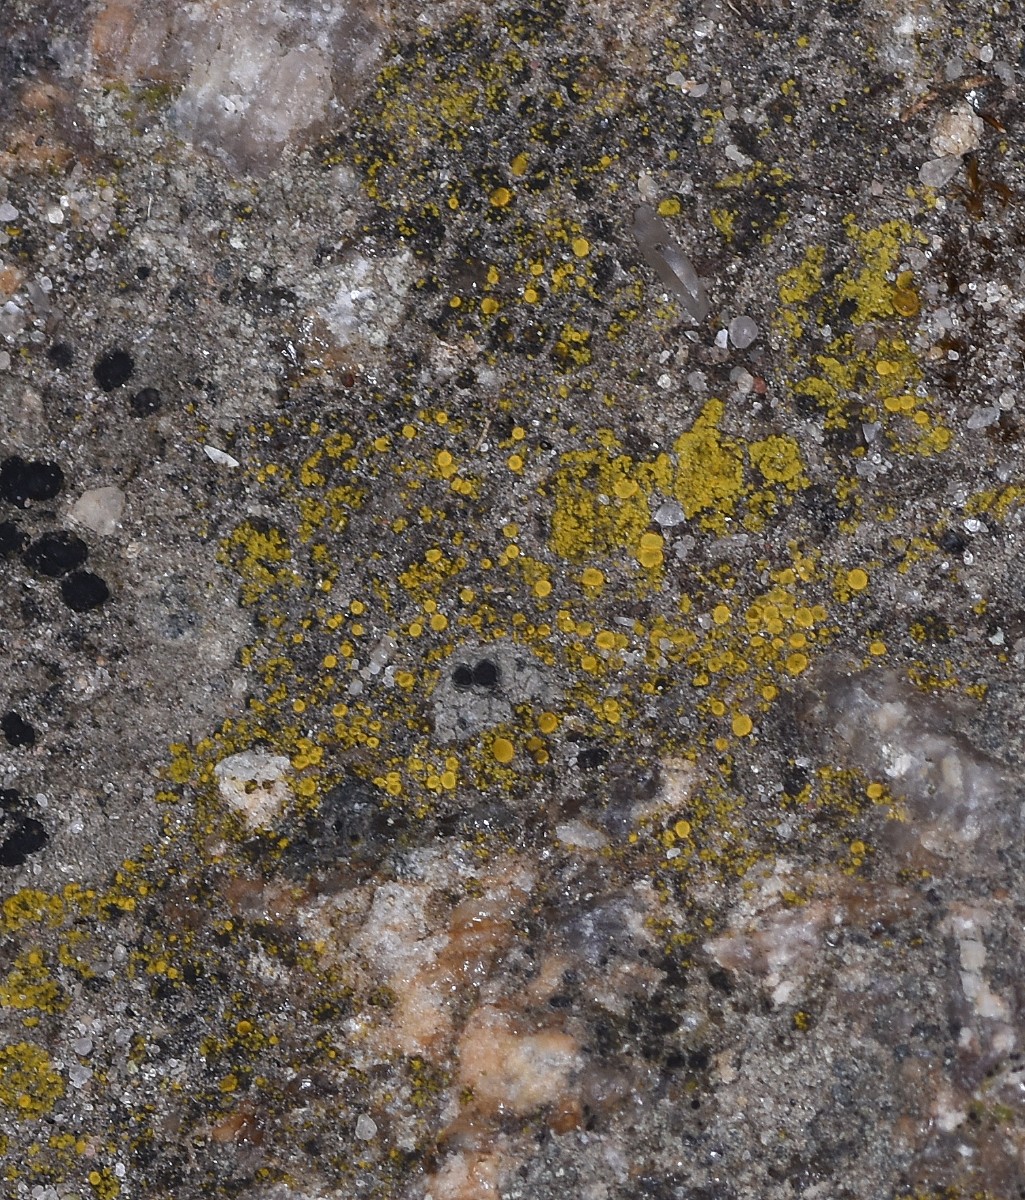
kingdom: Fungi
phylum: Ascomycota
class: Candelariomycetes
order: Candelariales
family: Candelariaceae
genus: Candelariella
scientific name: Candelariella vitellina
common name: almindelig æggeblommelav
